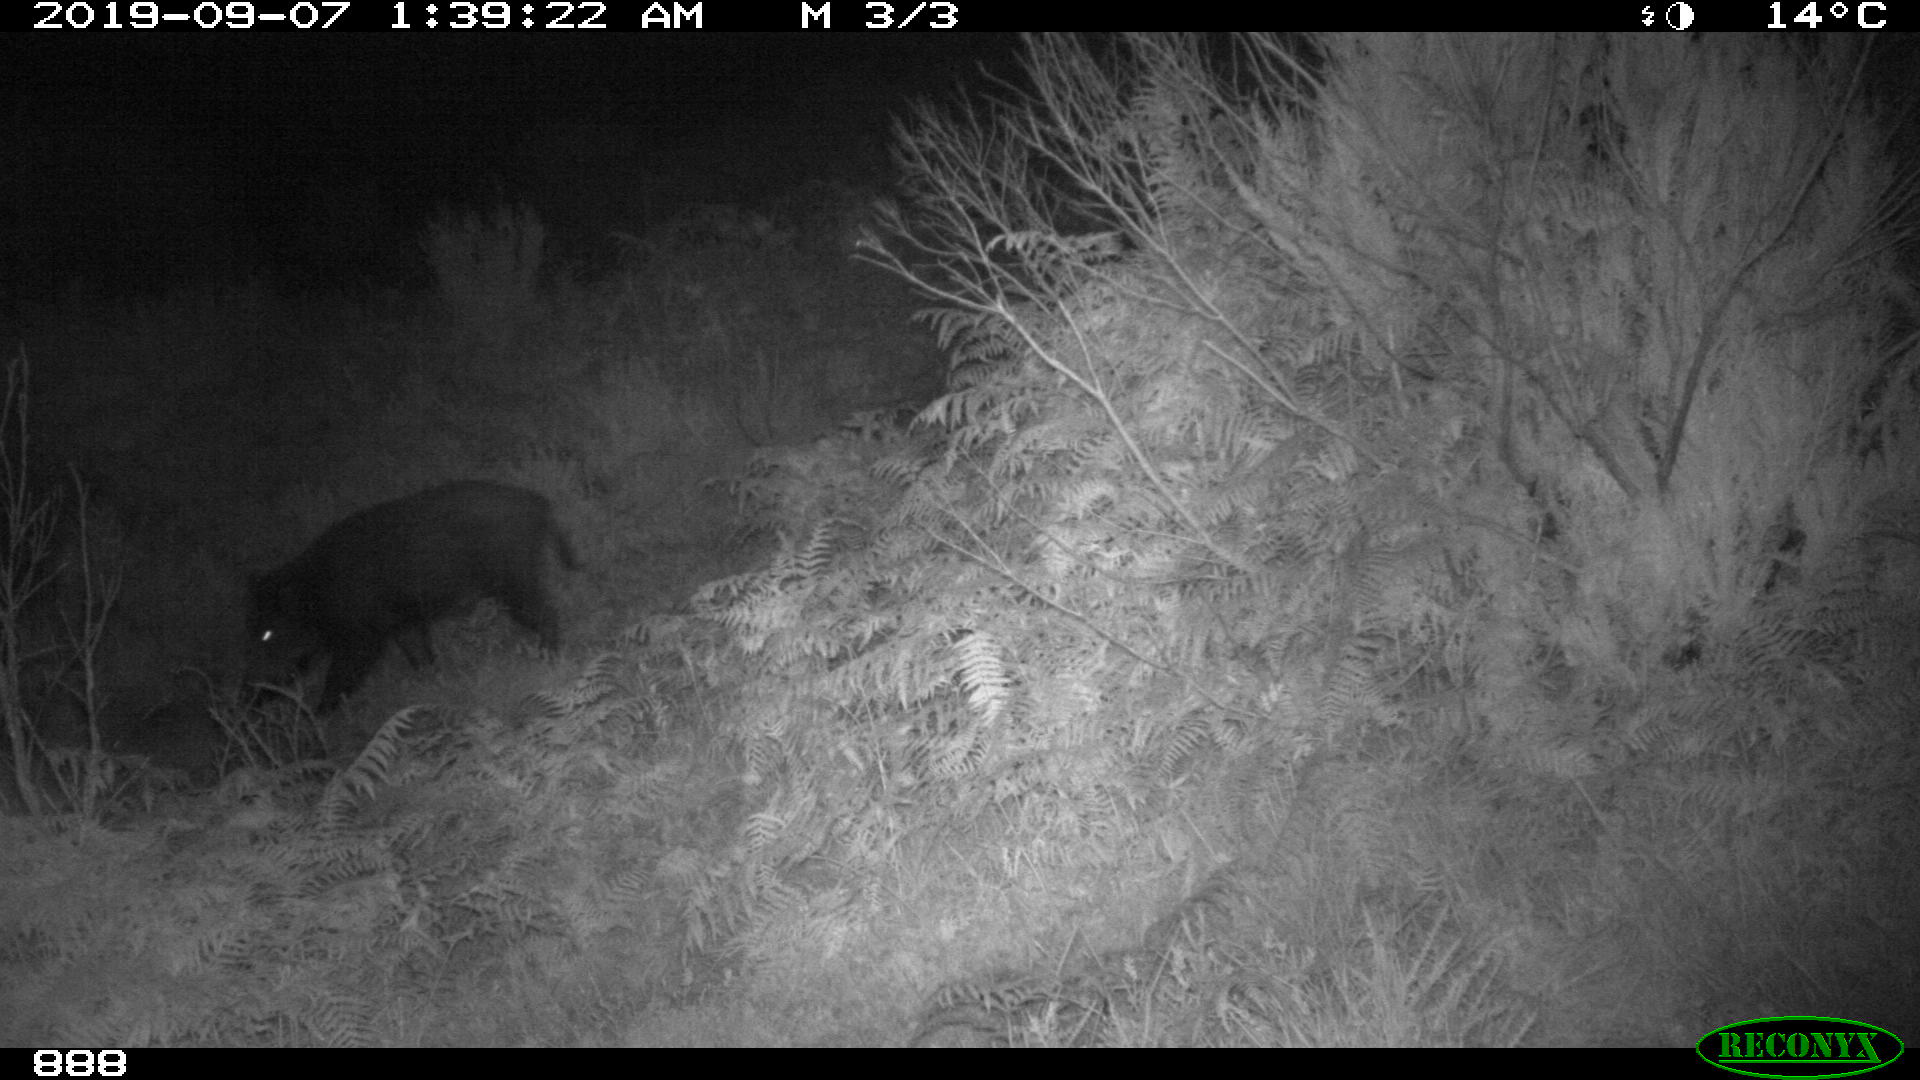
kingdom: Animalia
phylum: Chordata
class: Mammalia
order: Artiodactyla
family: Suidae
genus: Sus
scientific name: Sus scrofa
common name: Wild boar
